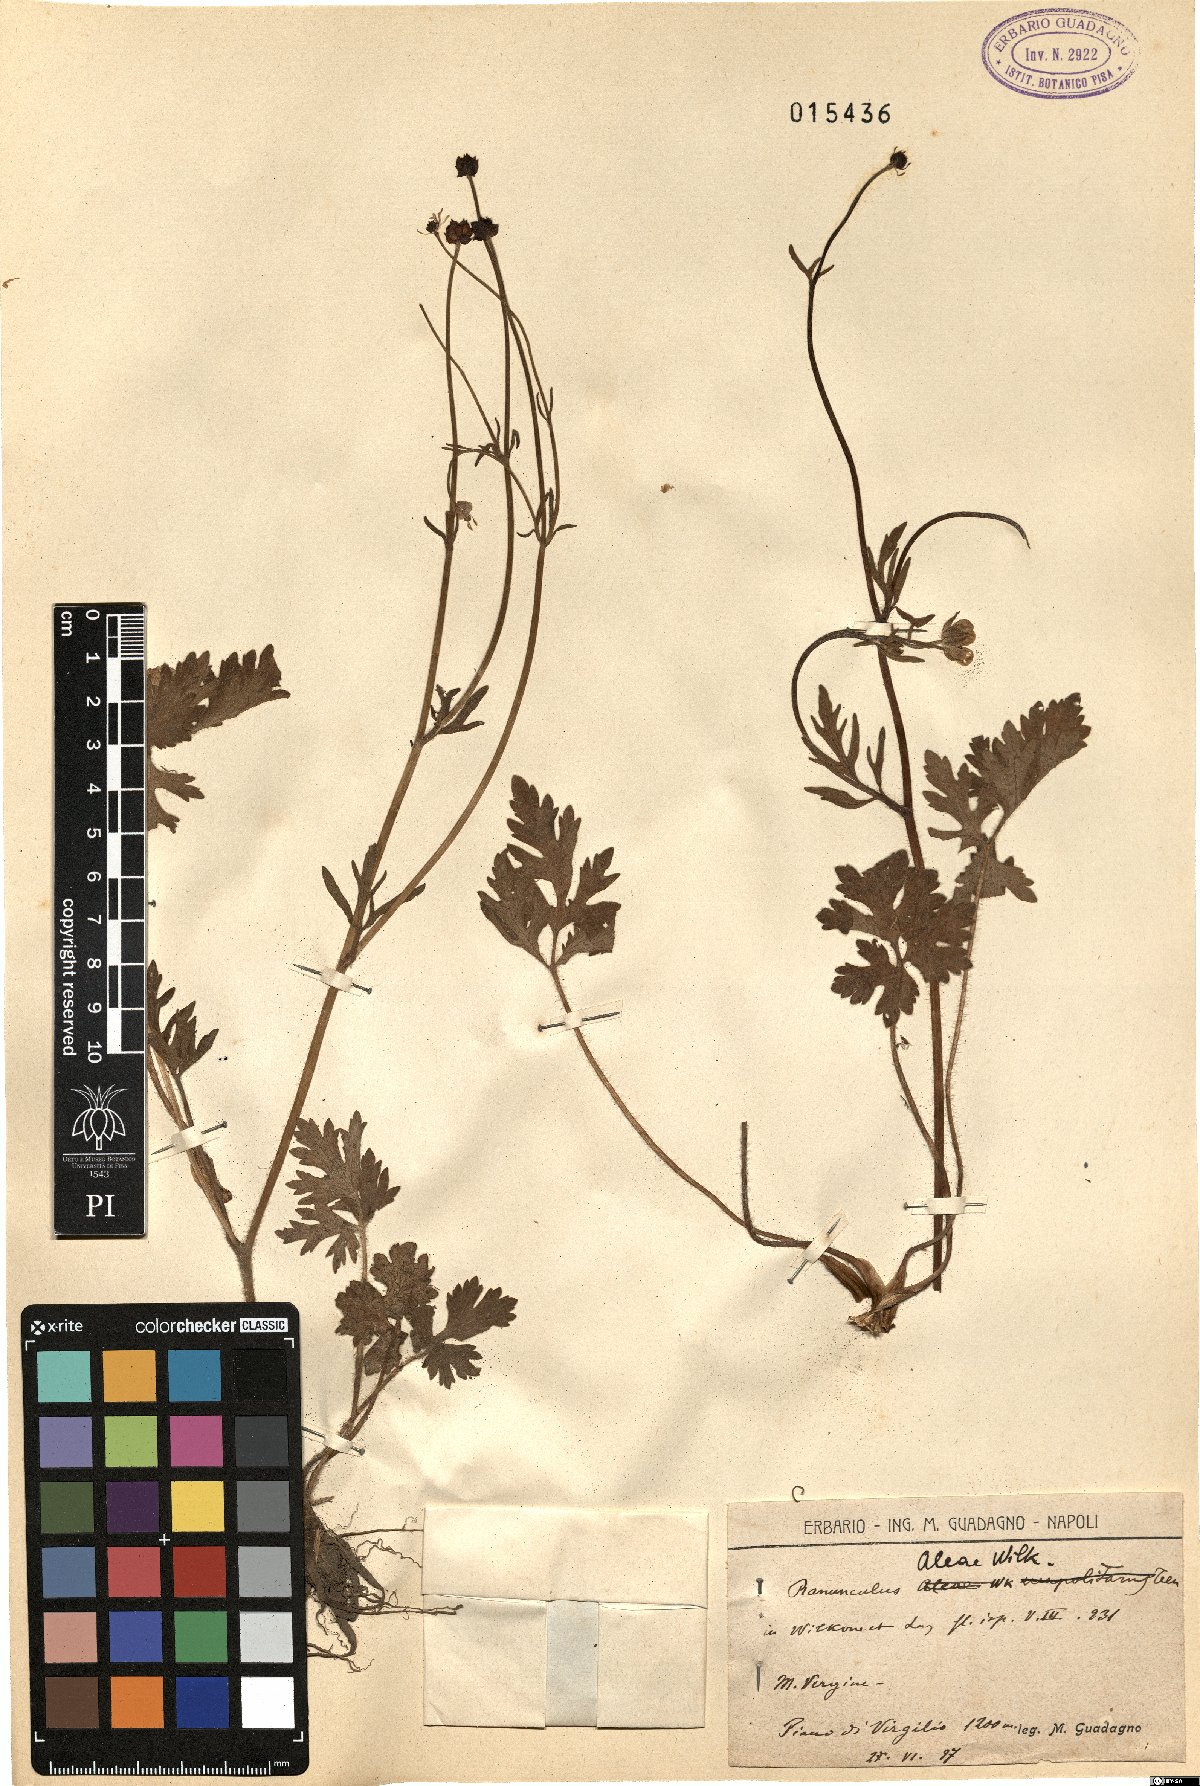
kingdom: Plantae
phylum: Tracheophyta
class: Magnoliopsida
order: Ranunculales
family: Ranunculaceae
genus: Ranunculus
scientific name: Ranunculus neapolitanus
